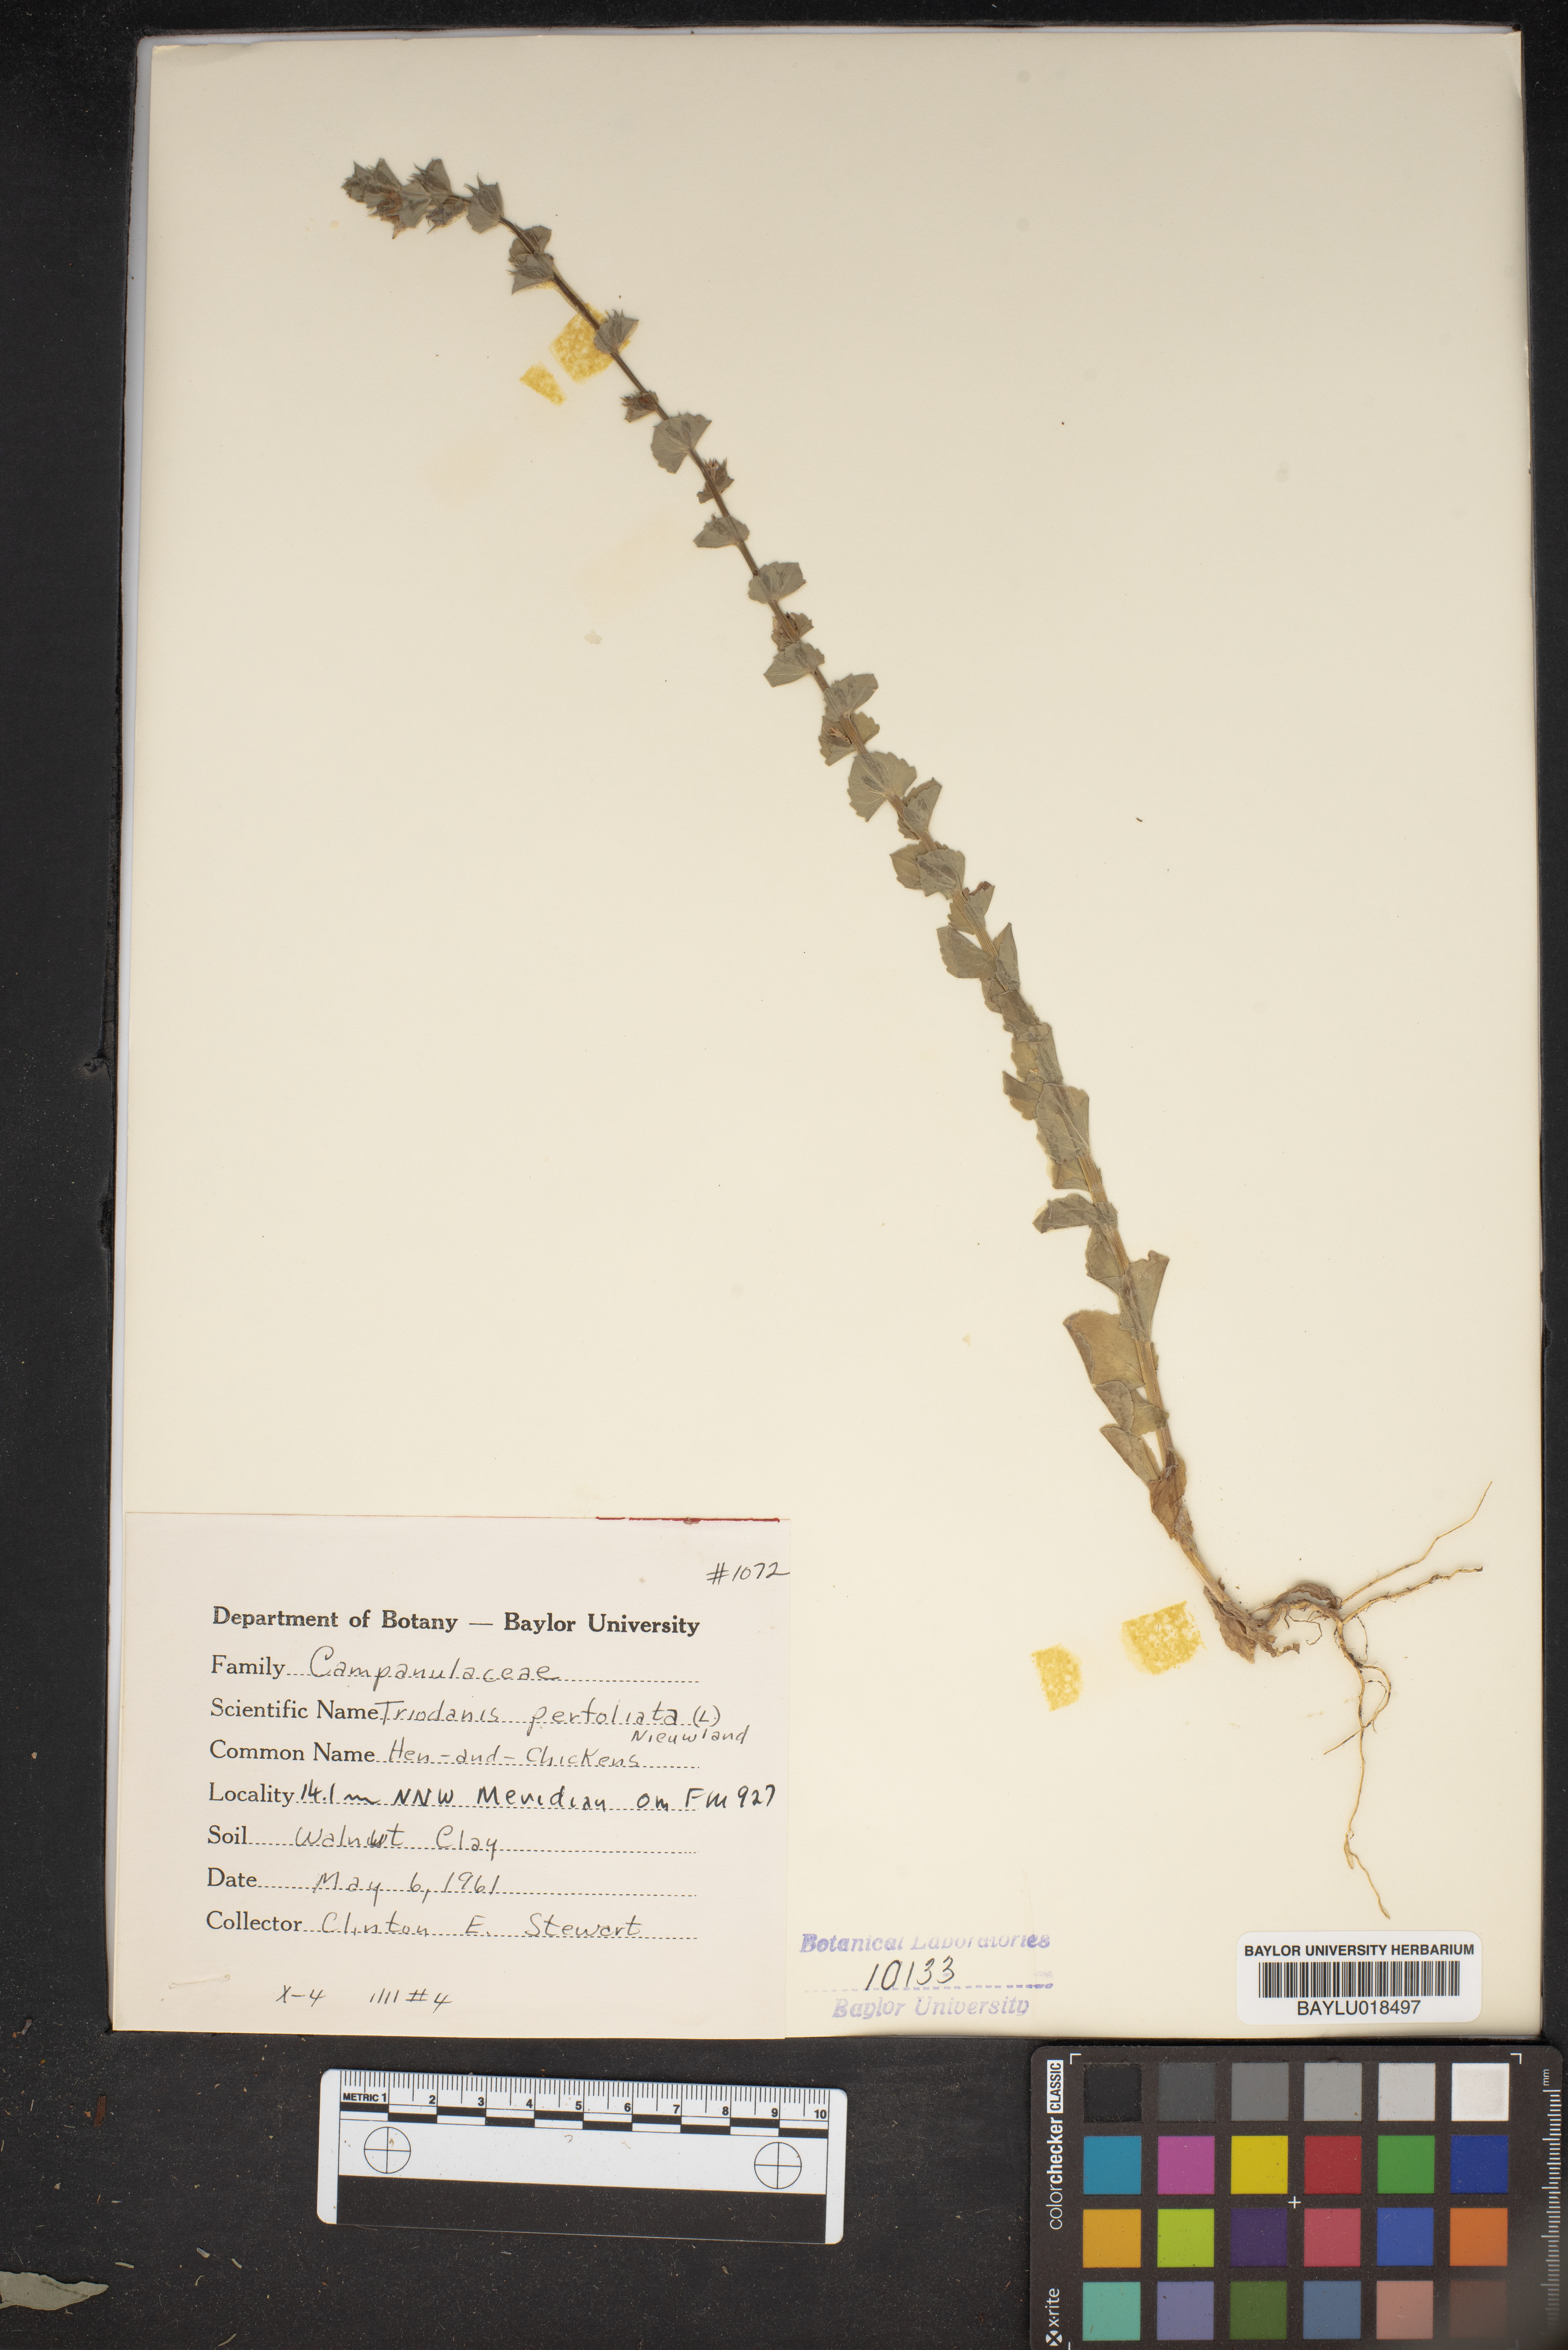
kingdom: Plantae
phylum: Tracheophyta
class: Magnoliopsida
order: Asterales
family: Campanulaceae
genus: Triodanis
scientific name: Triodanis perfoliata
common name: Clasping venus' looking-glass
